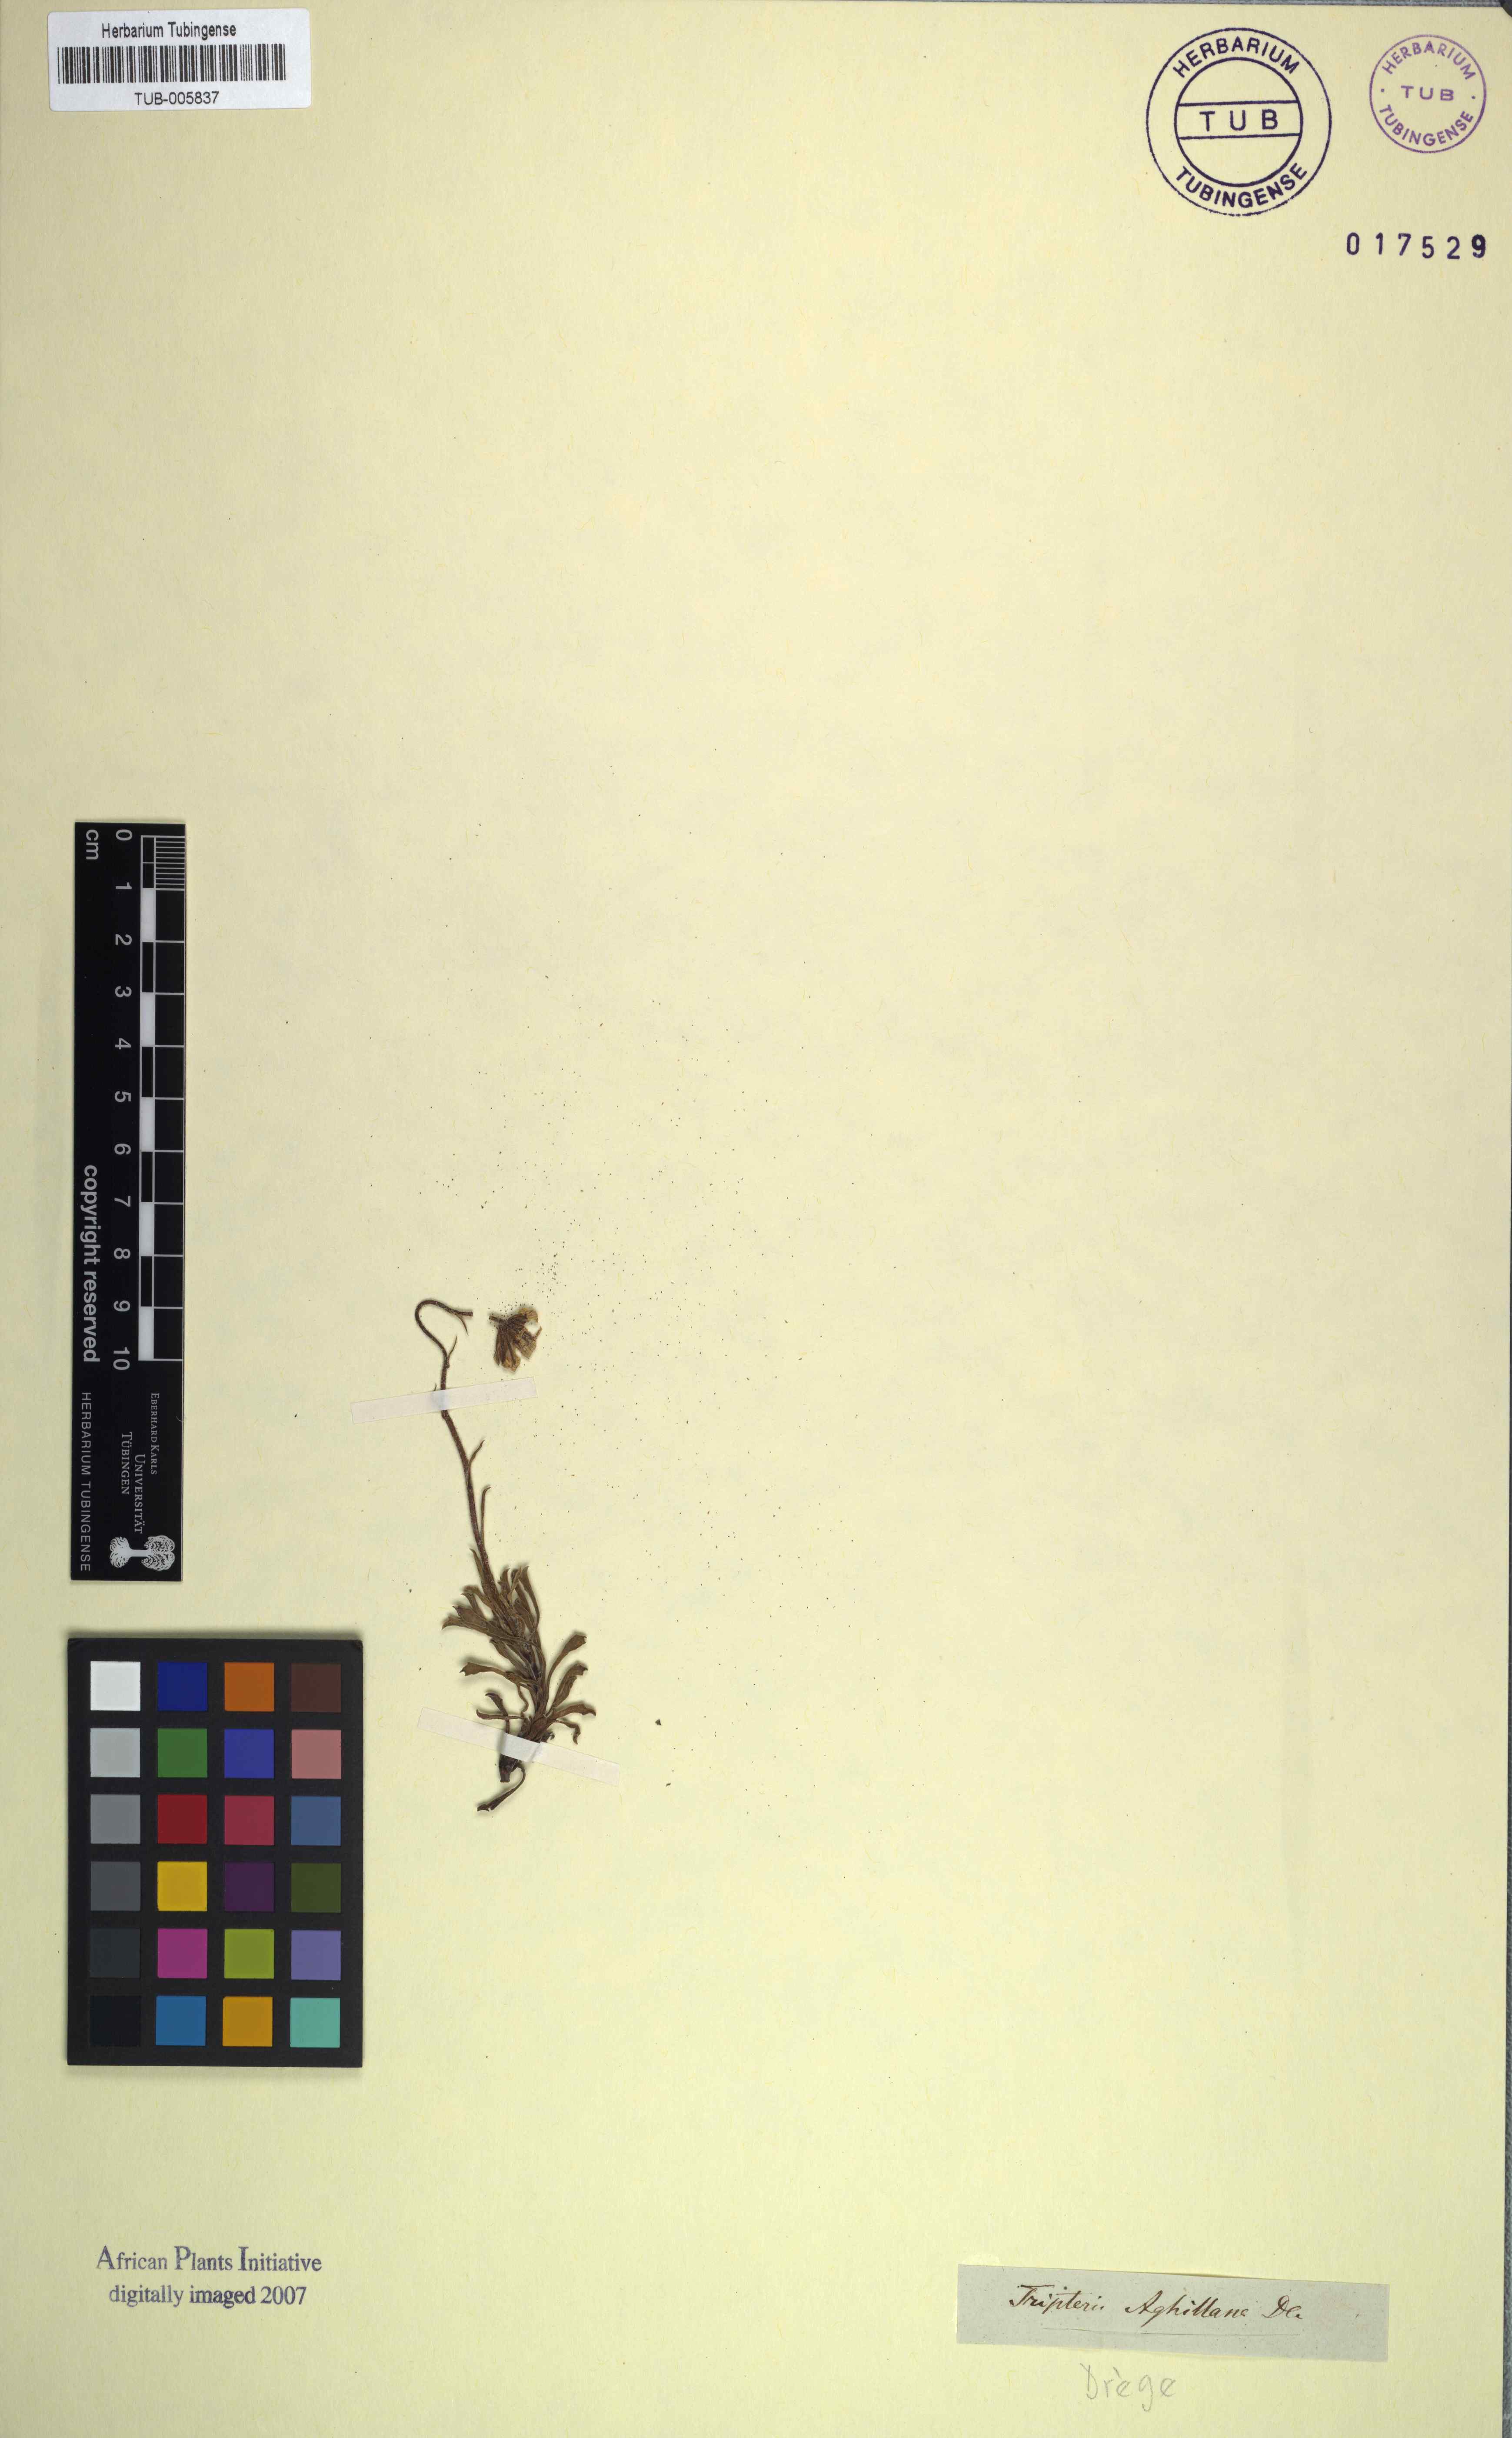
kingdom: Plantae
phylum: Tracheophyta
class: Magnoliopsida
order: Asterales
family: Asteraceae
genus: Osteospermum
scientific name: Osteospermum scariosum
